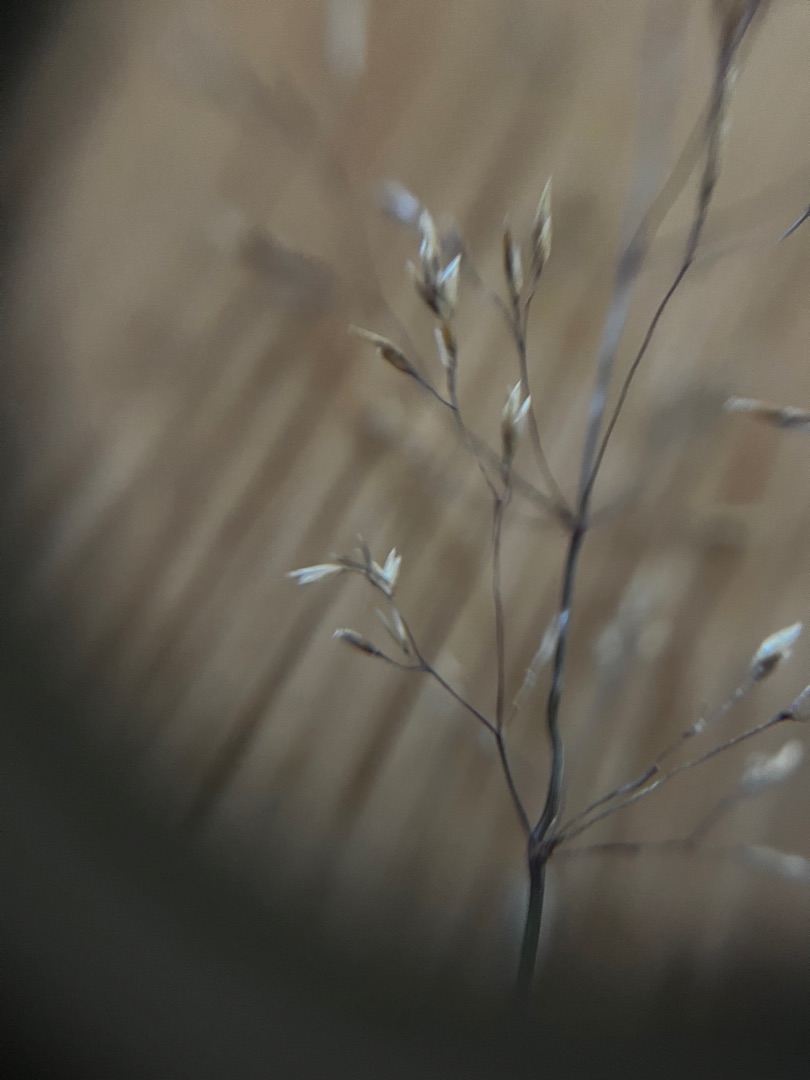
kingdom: Plantae
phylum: Tracheophyta
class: Liliopsida
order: Poales
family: Poaceae
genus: Avenella
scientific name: Avenella flexuosa
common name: Bølget bunke
